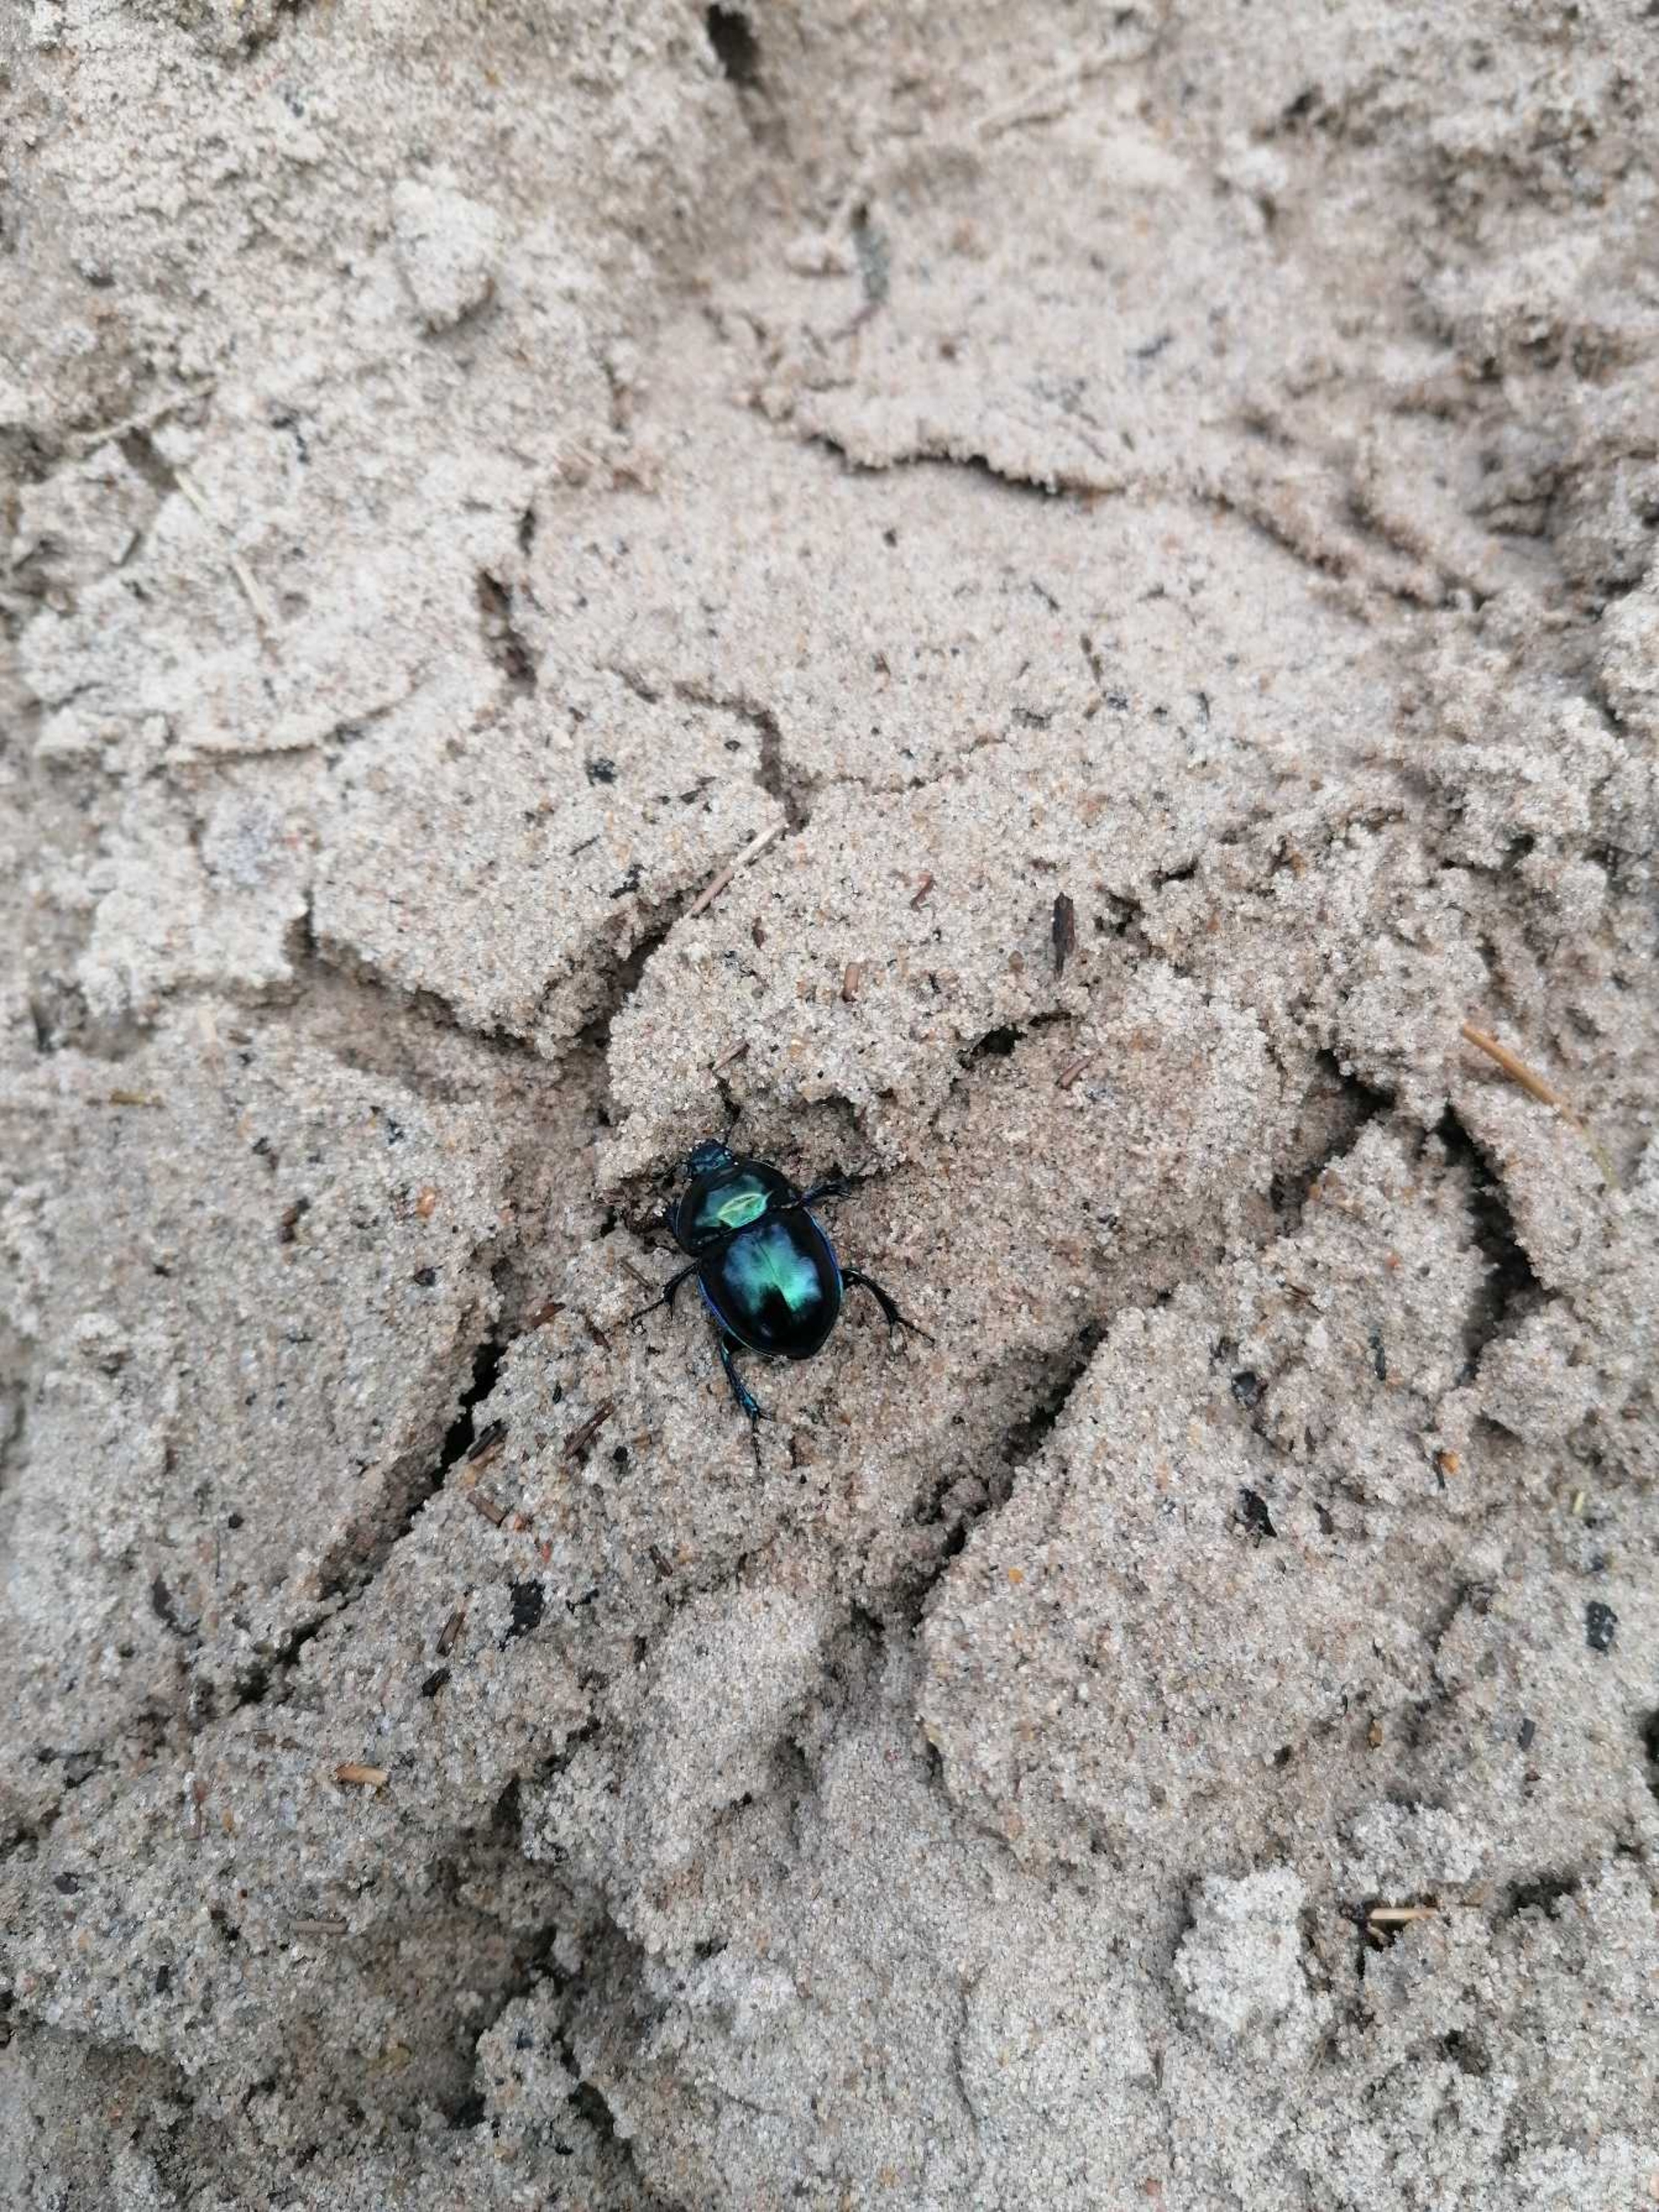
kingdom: Animalia
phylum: Arthropoda
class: Insecta
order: Coleoptera
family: Geotrupidae
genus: Trypocopris
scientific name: Trypocopris vernalis
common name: Glat skarnbasse
